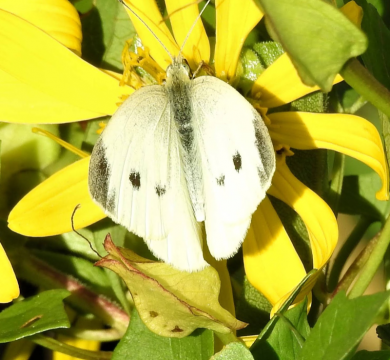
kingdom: Animalia
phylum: Arthropoda
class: Insecta
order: Lepidoptera
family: Pieridae
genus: Pieris
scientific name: Pieris rapae
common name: Cabbage White
